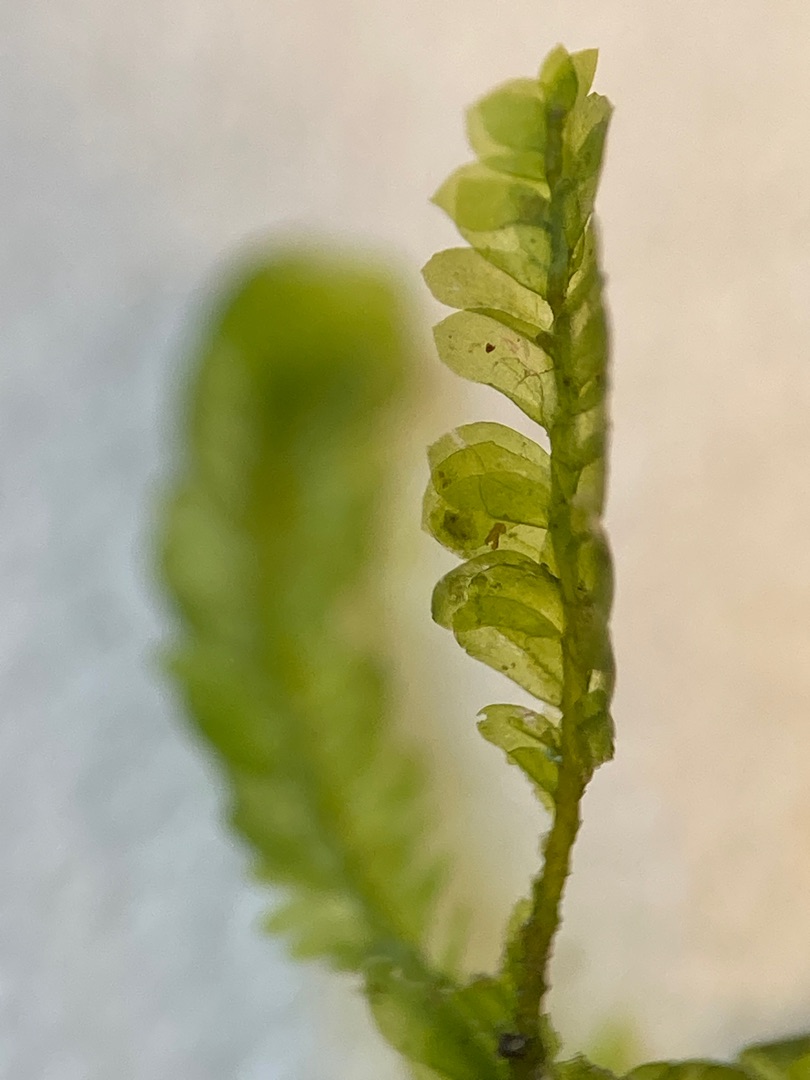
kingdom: Plantae
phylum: Bryophyta
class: Bryopsida
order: Hypnales
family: Neckeraceae
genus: Homalia
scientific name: Homalia trichomanoides
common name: Skov-tungemos
